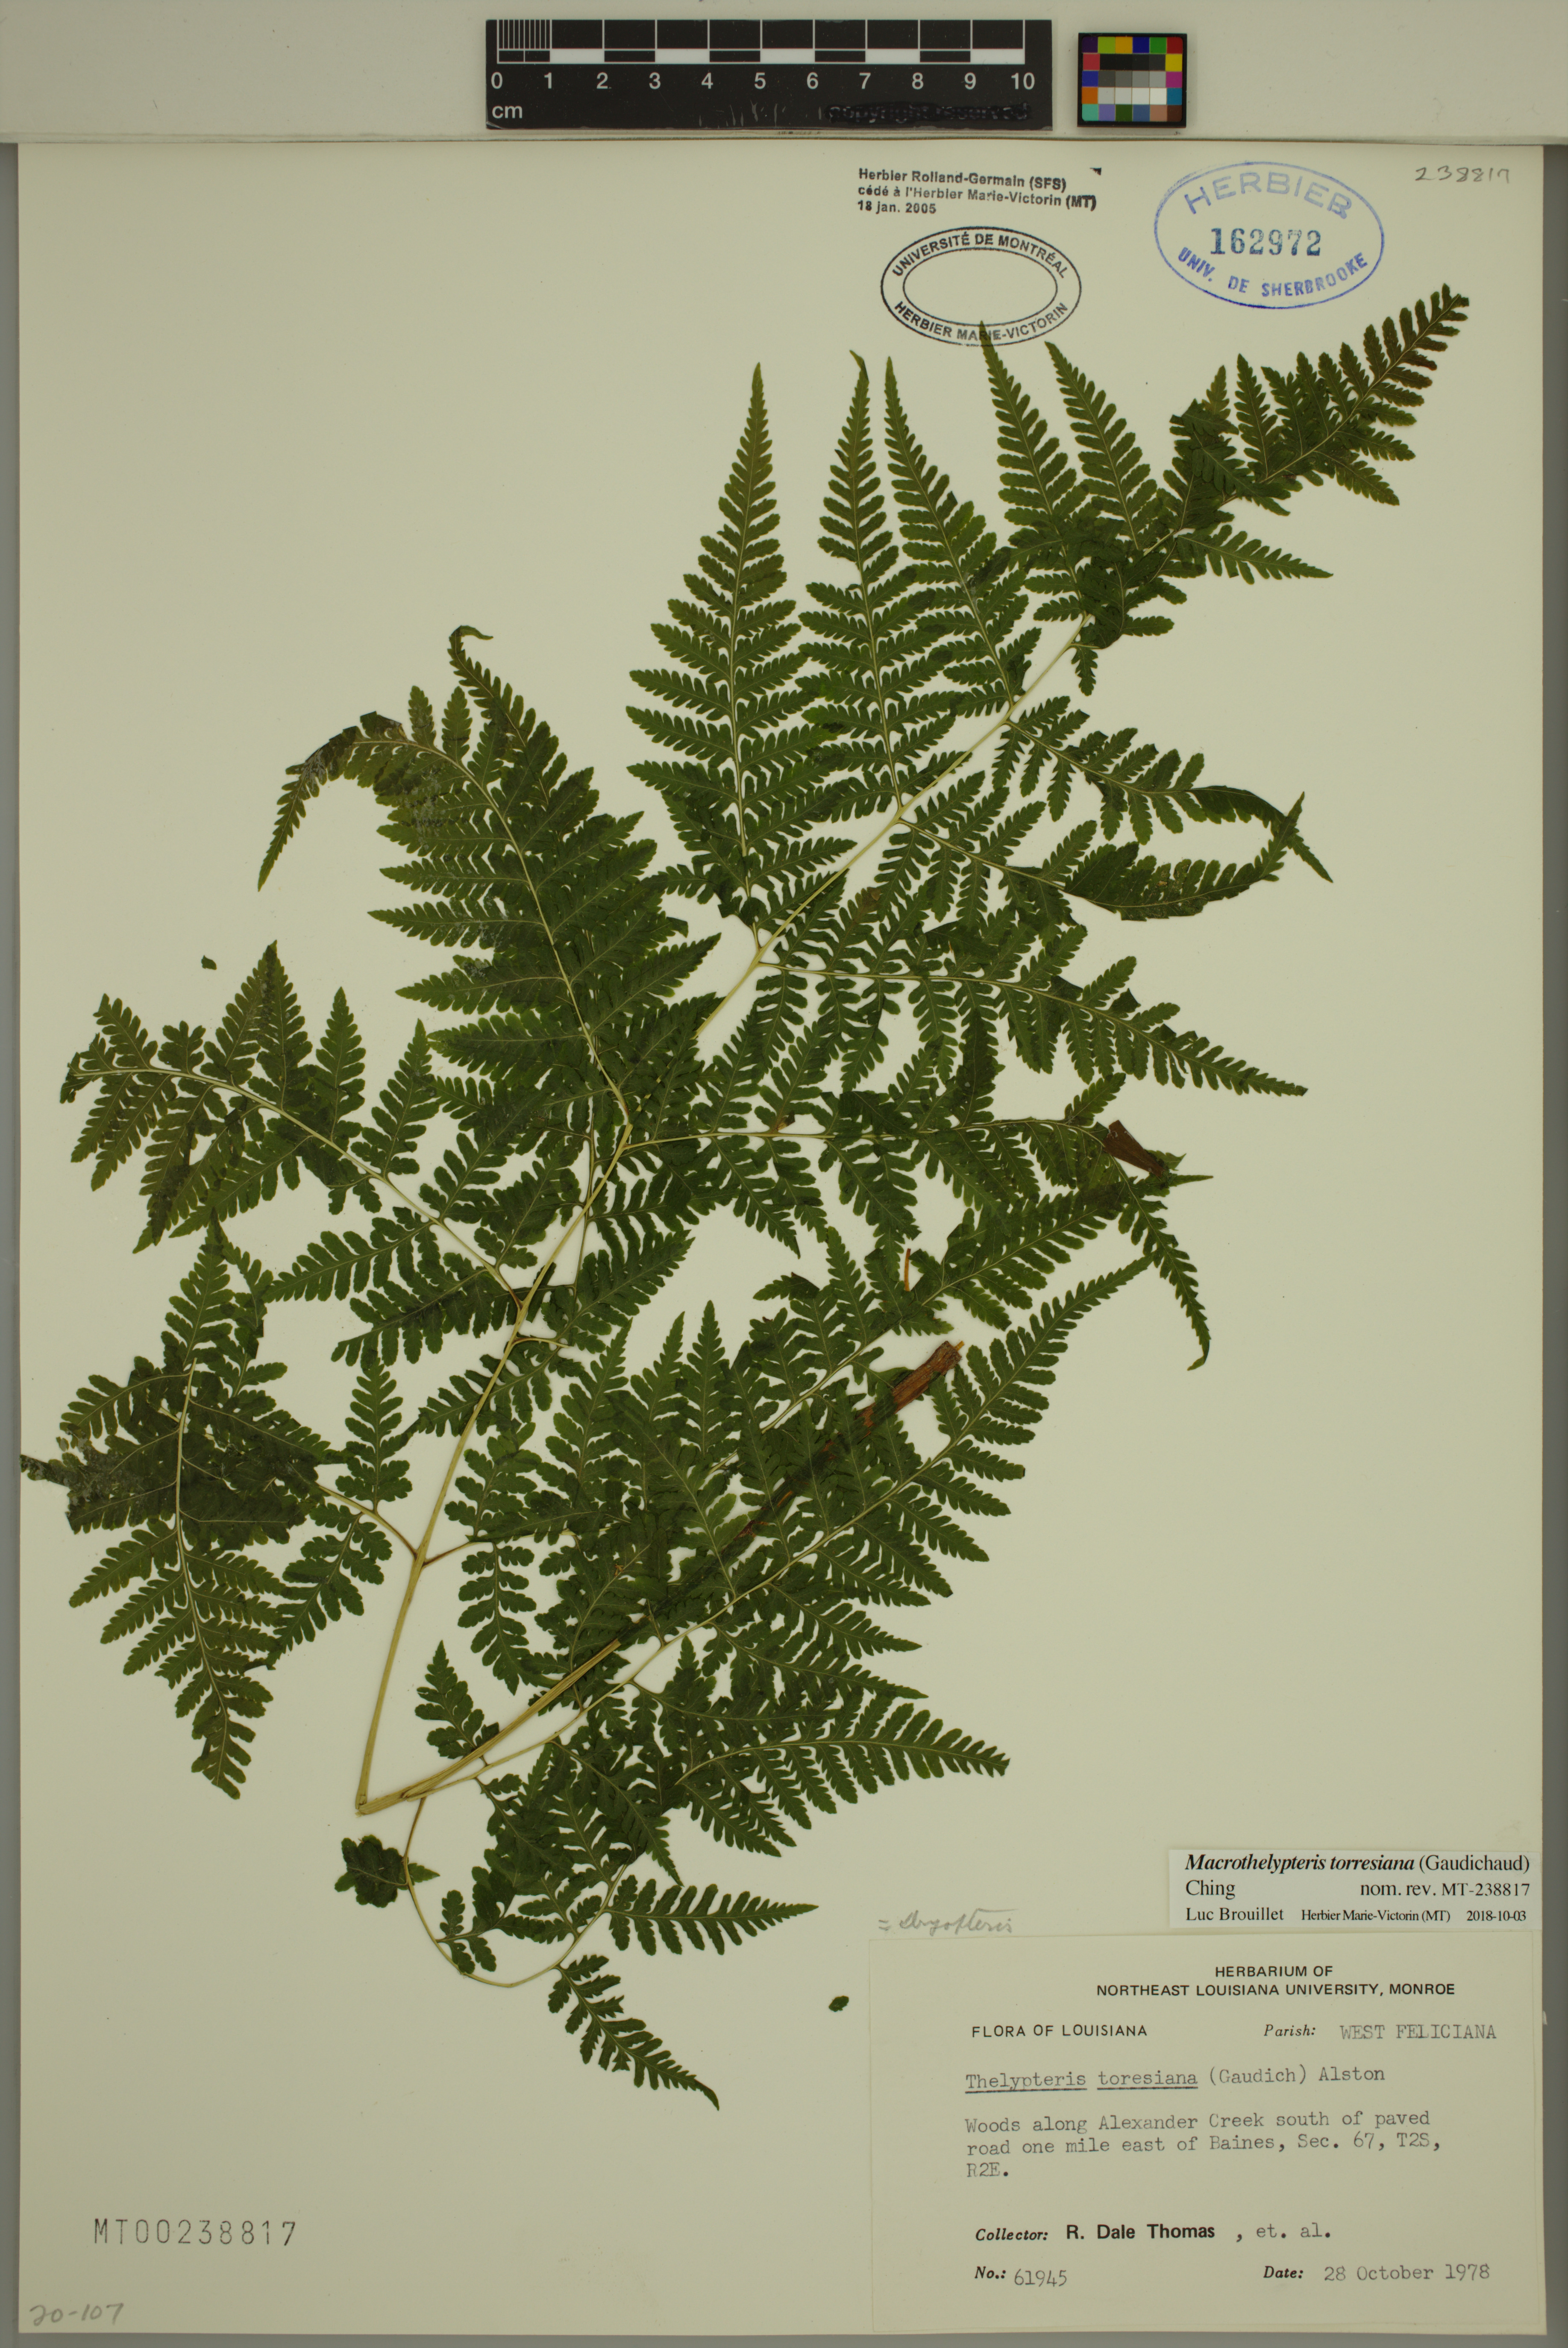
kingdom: Plantae
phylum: Tracheophyta
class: Polypodiopsida
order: Polypodiales
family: Thelypteridaceae
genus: Macrothelypteris
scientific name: Macrothelypteris torresiana
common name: Swordfern
